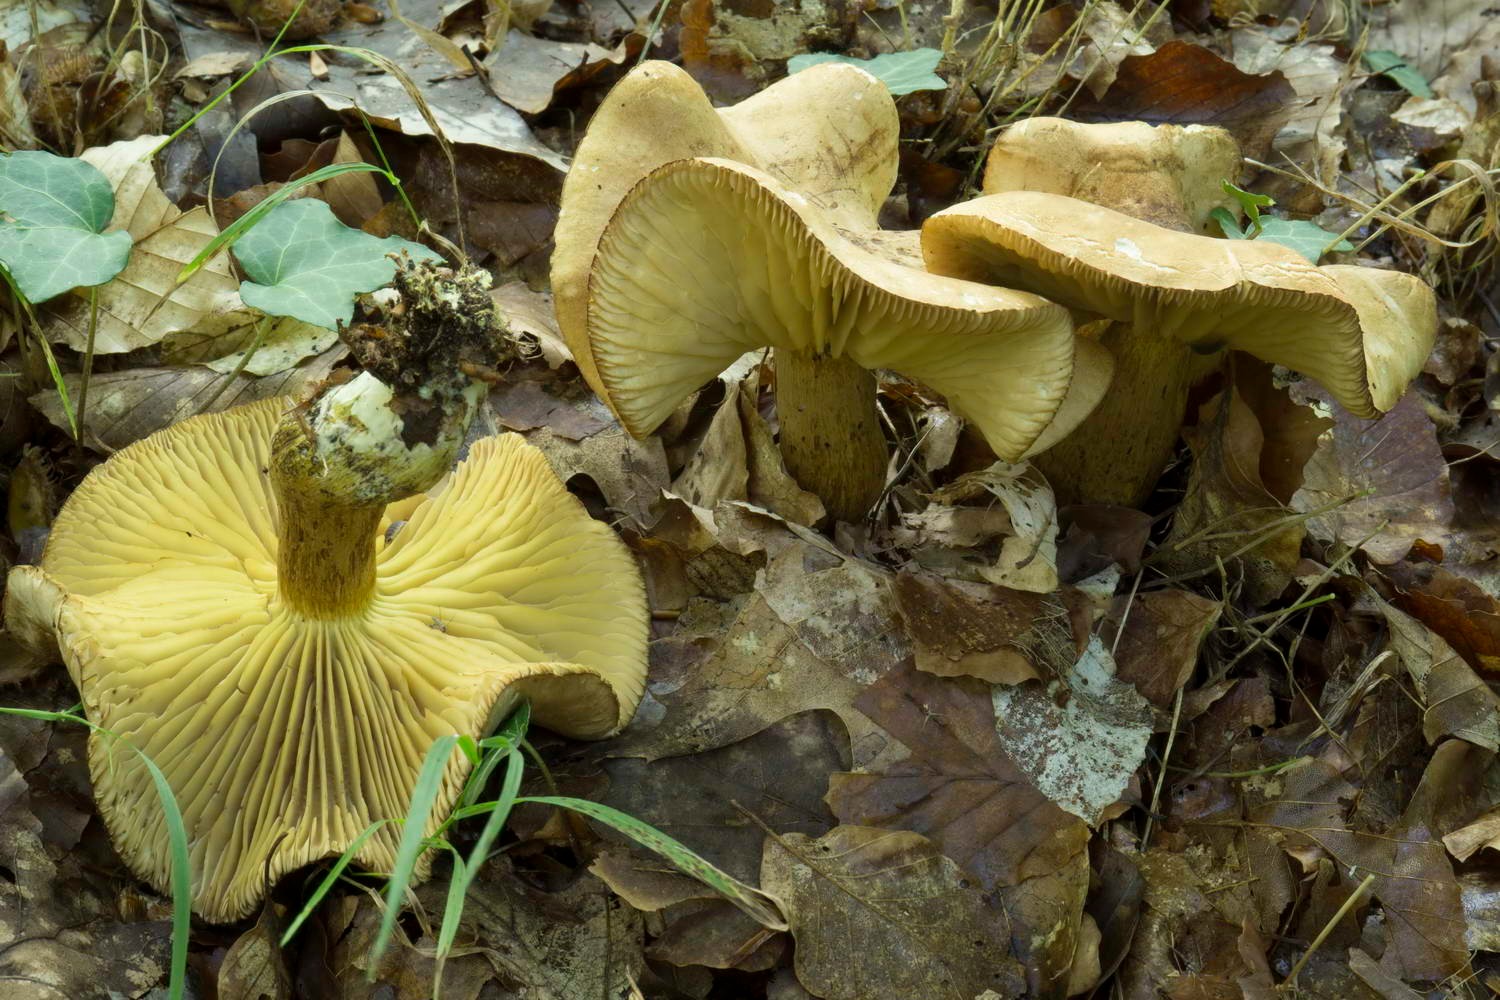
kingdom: Fungi
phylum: Basidiomycota
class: Agaricomycetes
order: Agaricales
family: Tricholomataceae
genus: Tricholoma
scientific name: Tricholoma sulphureum
